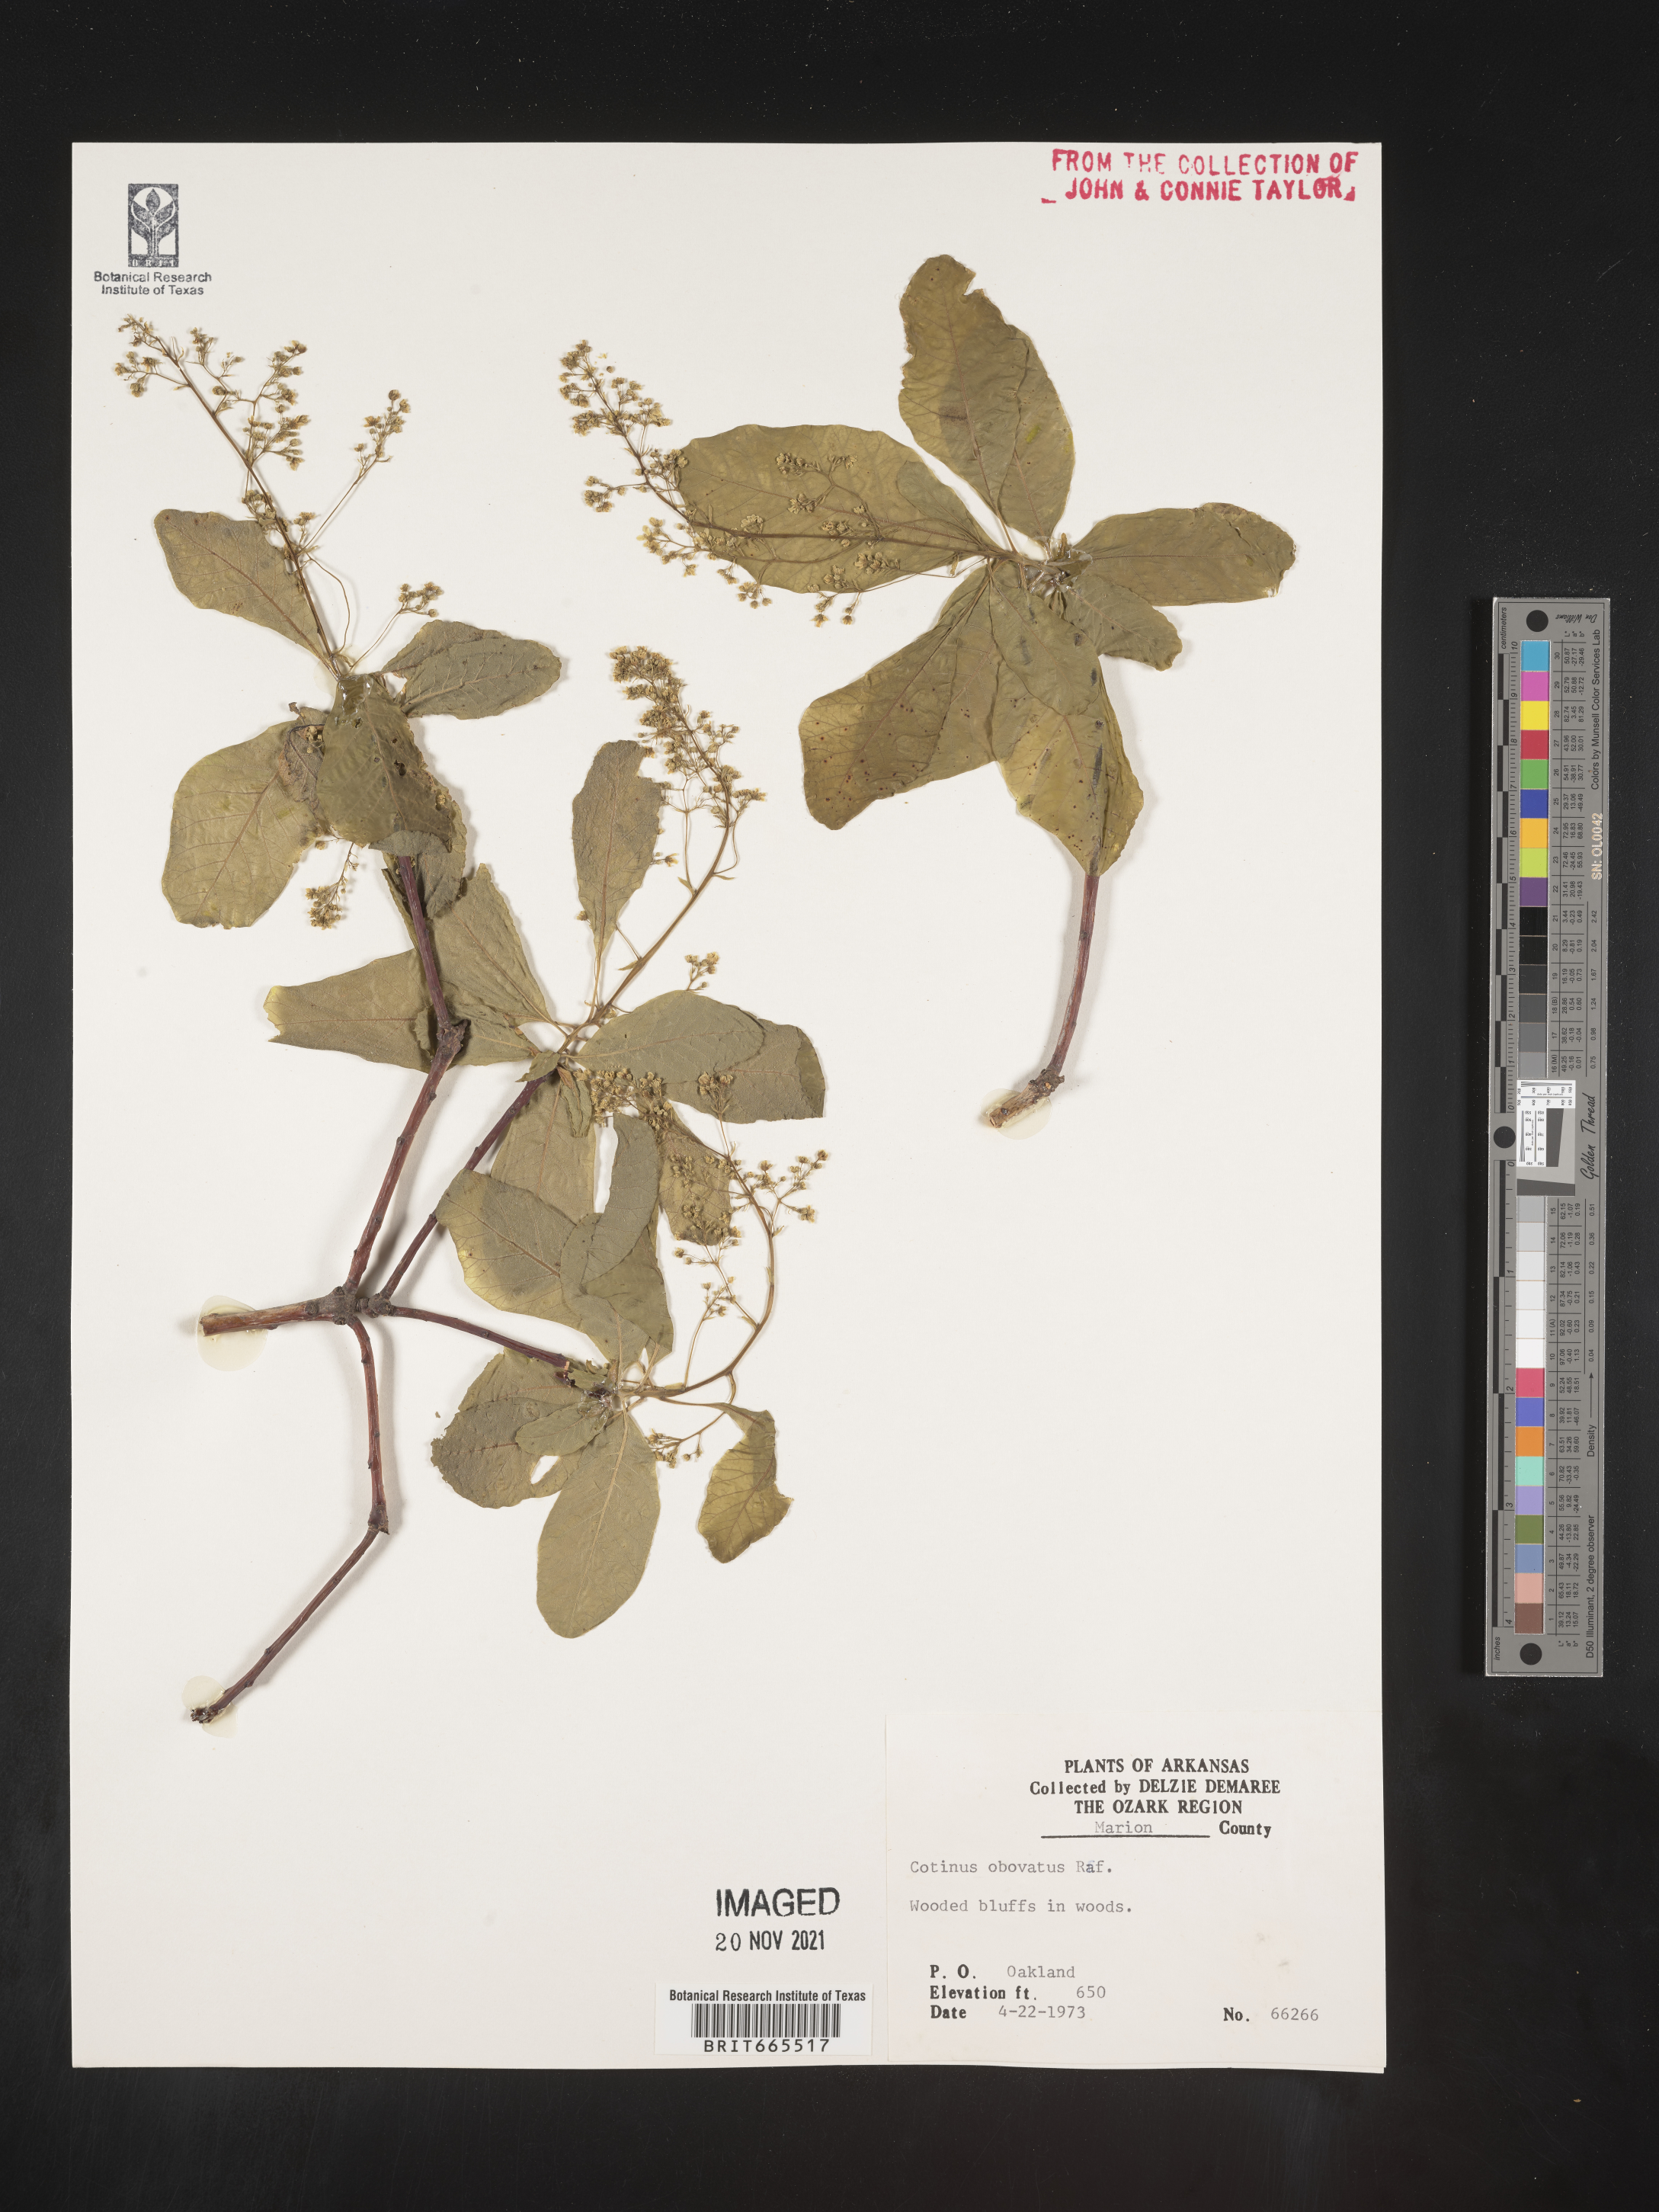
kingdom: Plantae
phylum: Tracheophyta
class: Magnoliopsida
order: Sapindales
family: Anacardiaceae
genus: Cotinus
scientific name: Cotinus obovatus
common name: Chittamwood
